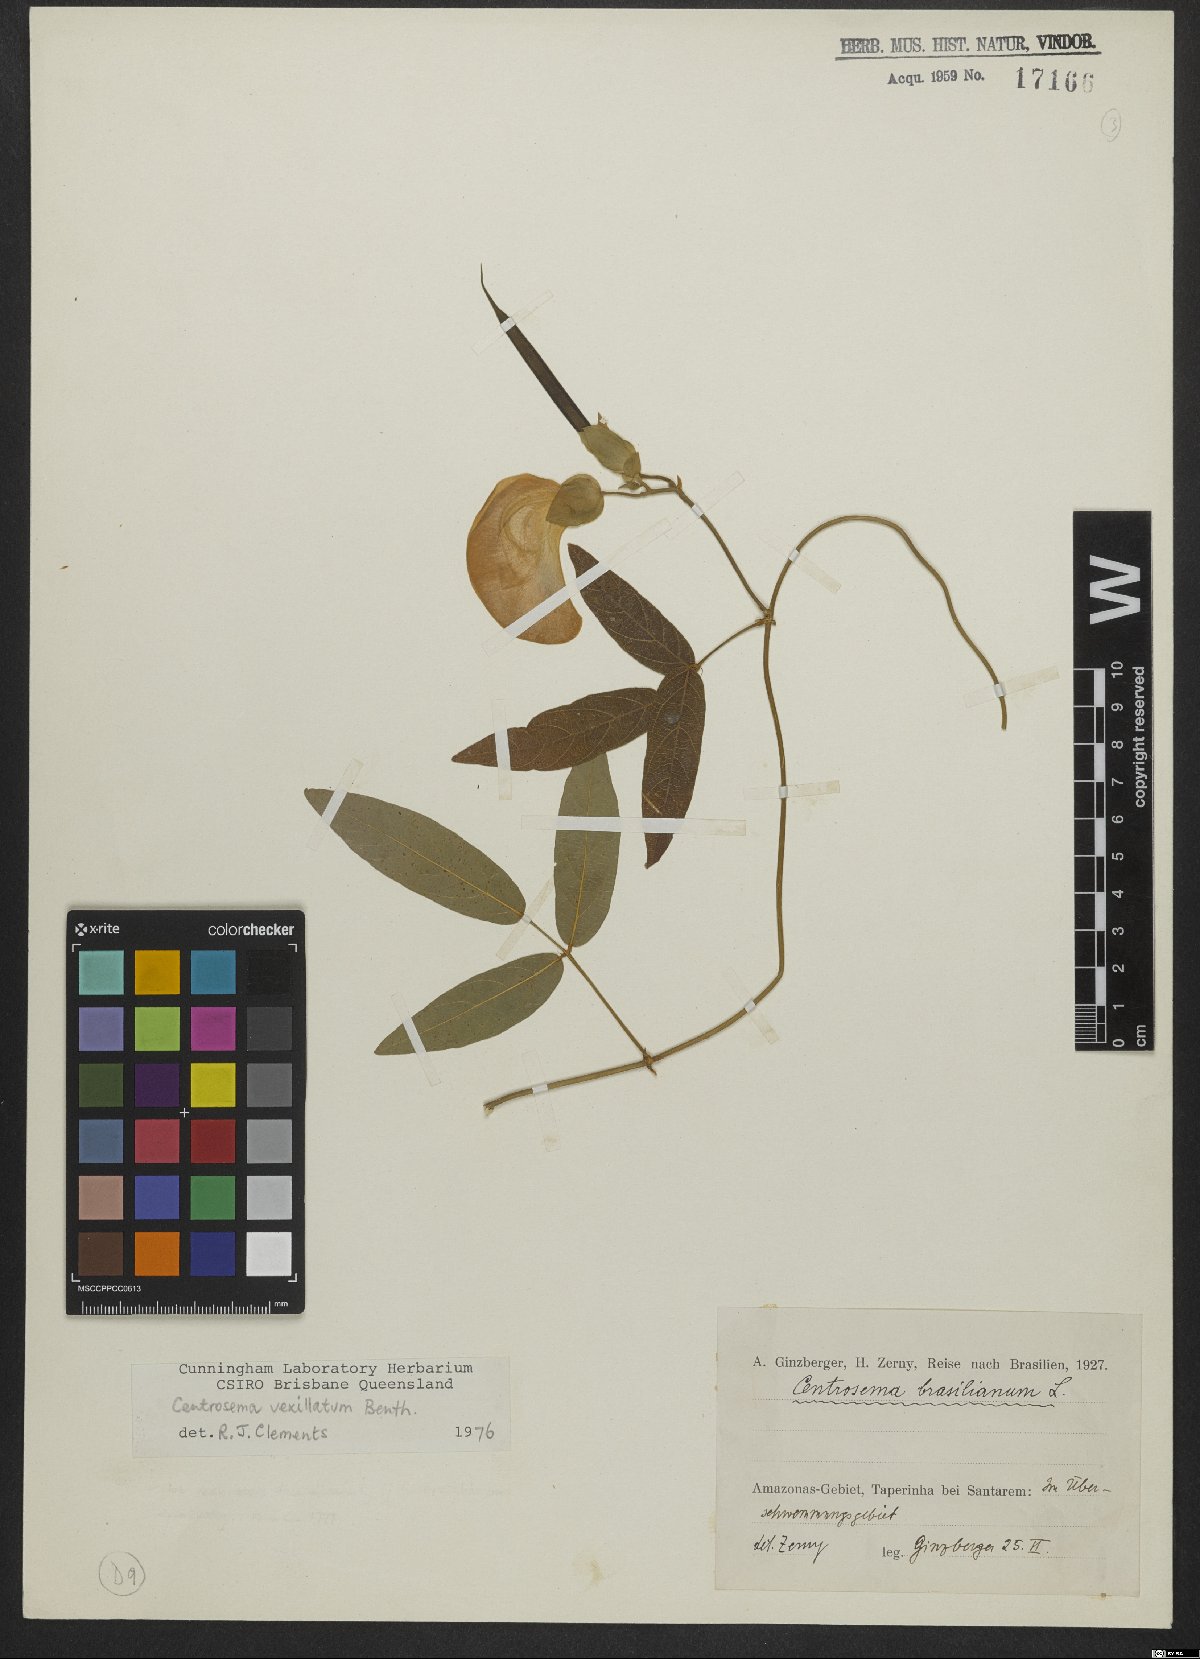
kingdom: Plantae
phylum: Tracheophyta
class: Magnoliopsida
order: Fabales
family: Fabaceae
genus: Centrosema
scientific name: Centrosema vexillatum
